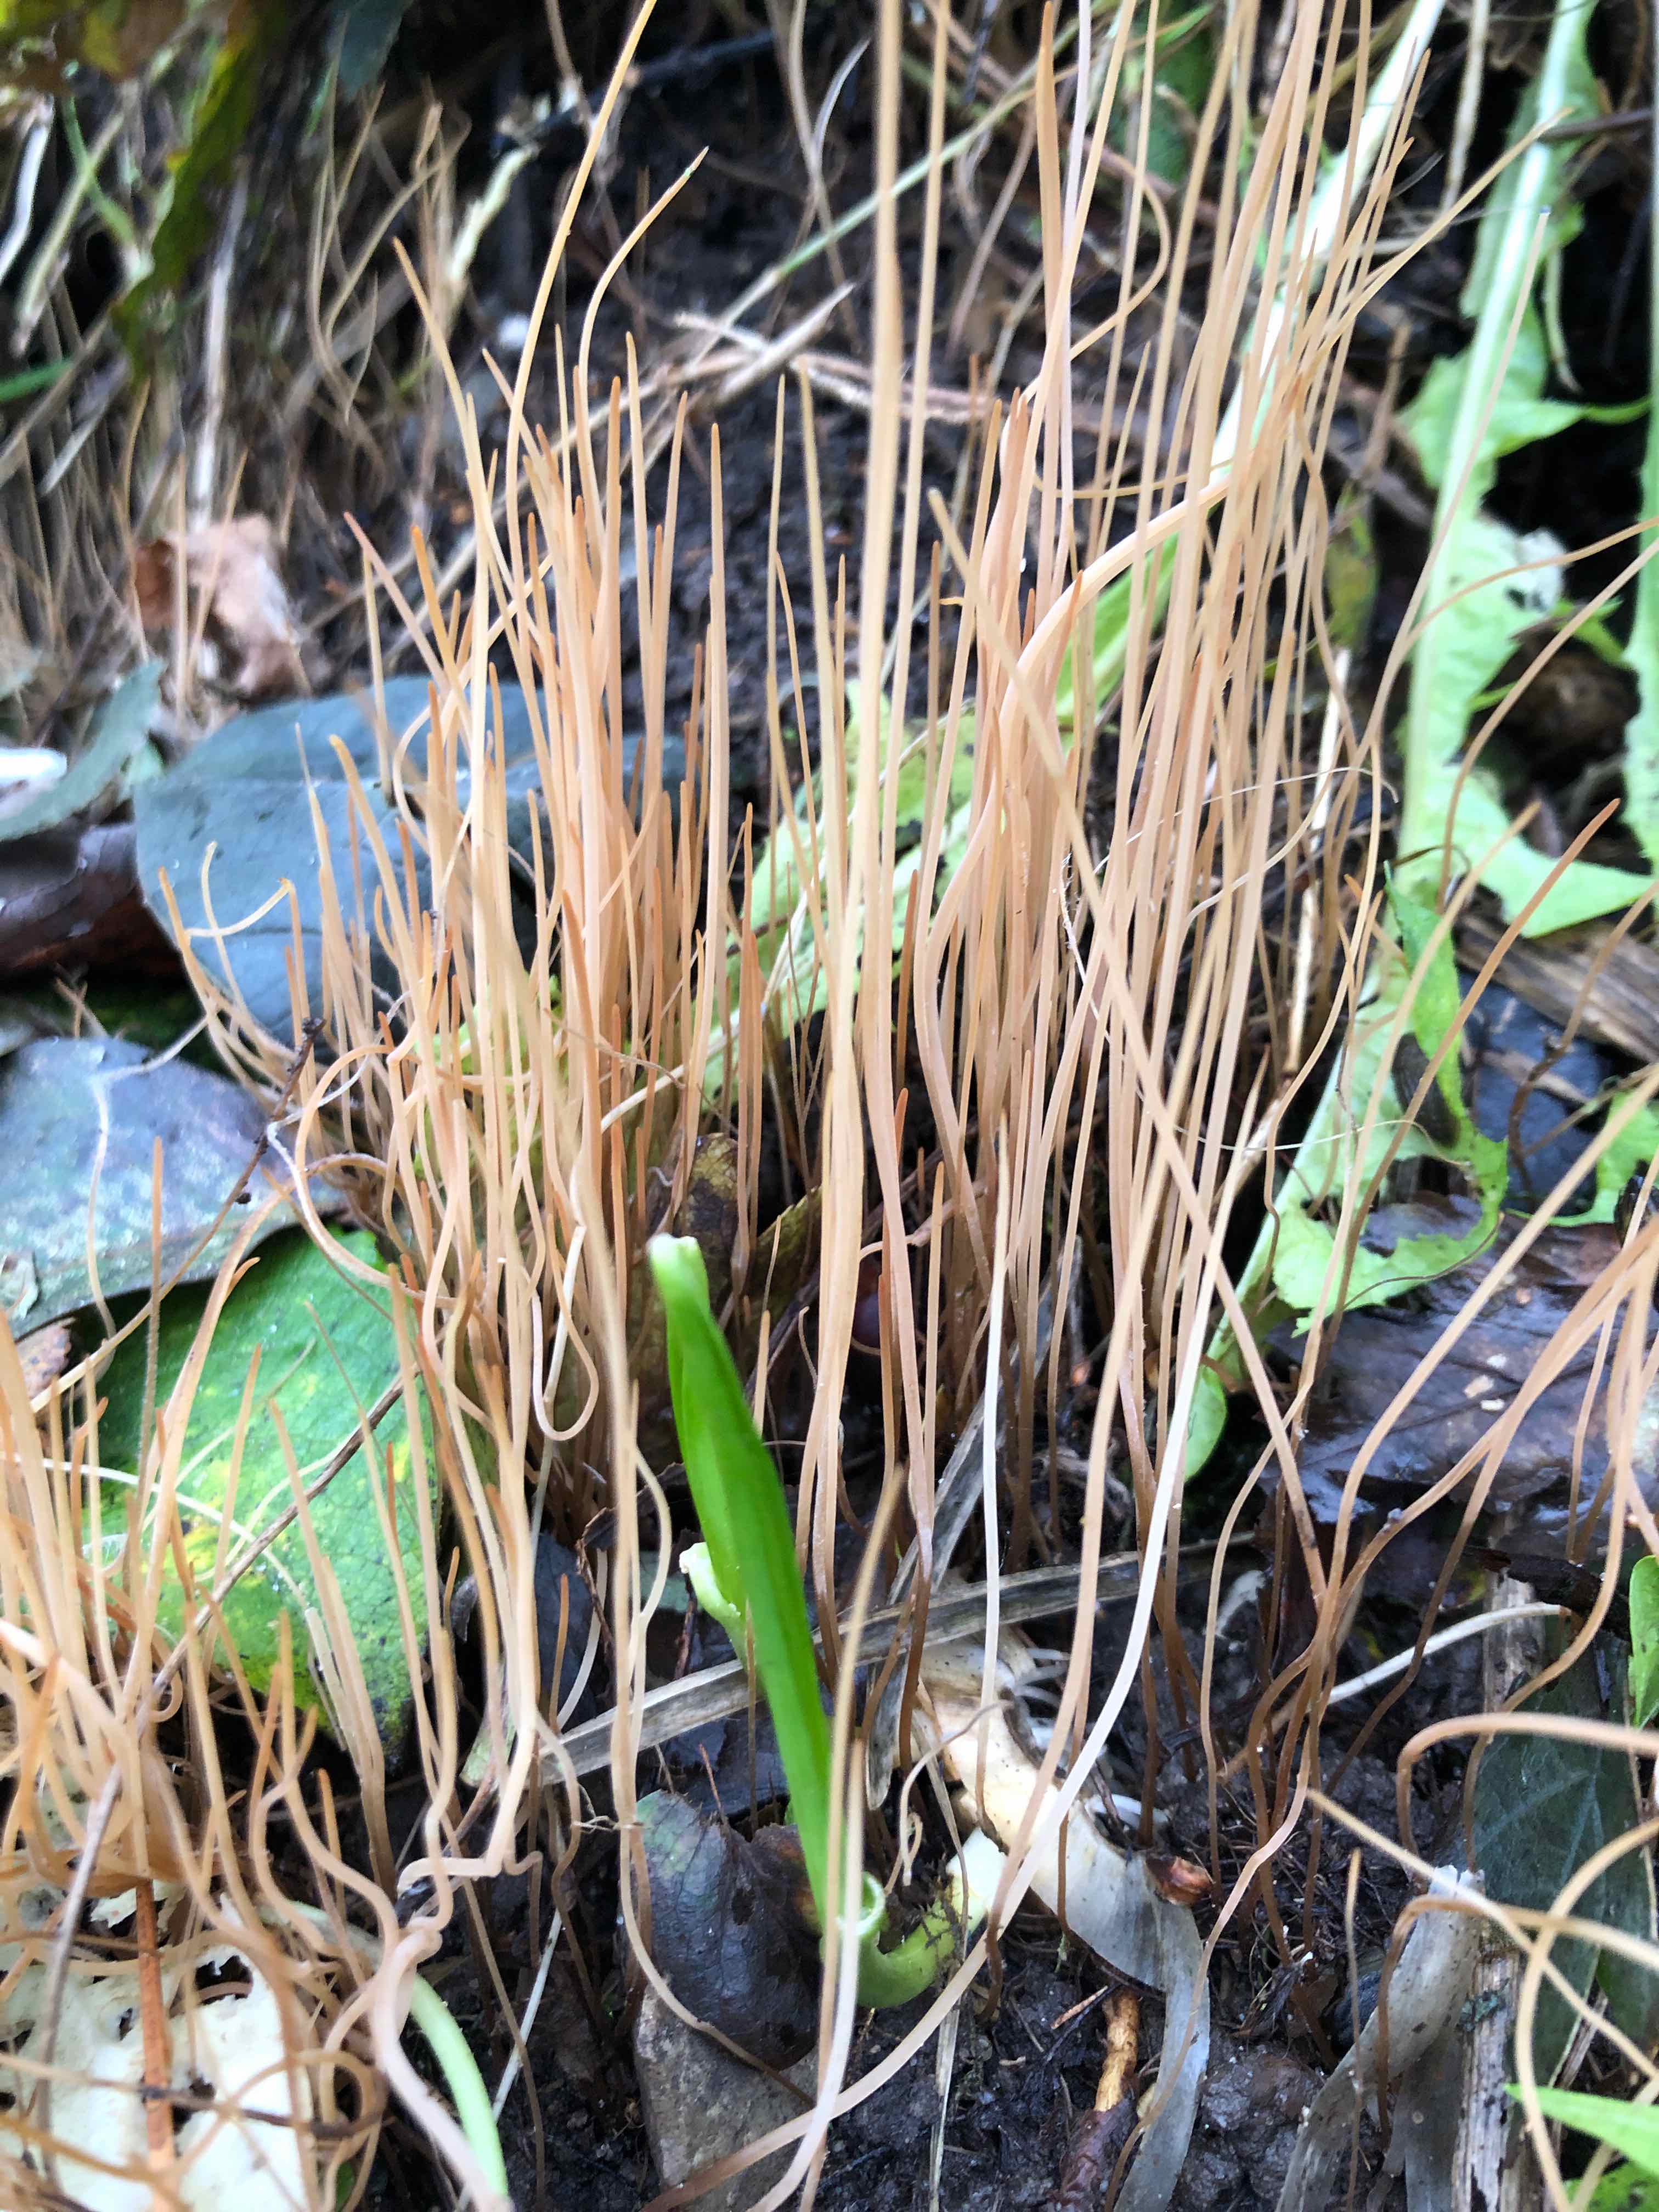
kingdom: Fungi
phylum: Basidiomycota
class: Agaricomycetes
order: Agaricales
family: Typhulaceae
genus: Typhula
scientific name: Typhula juncea
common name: trådagtig rørkølle
